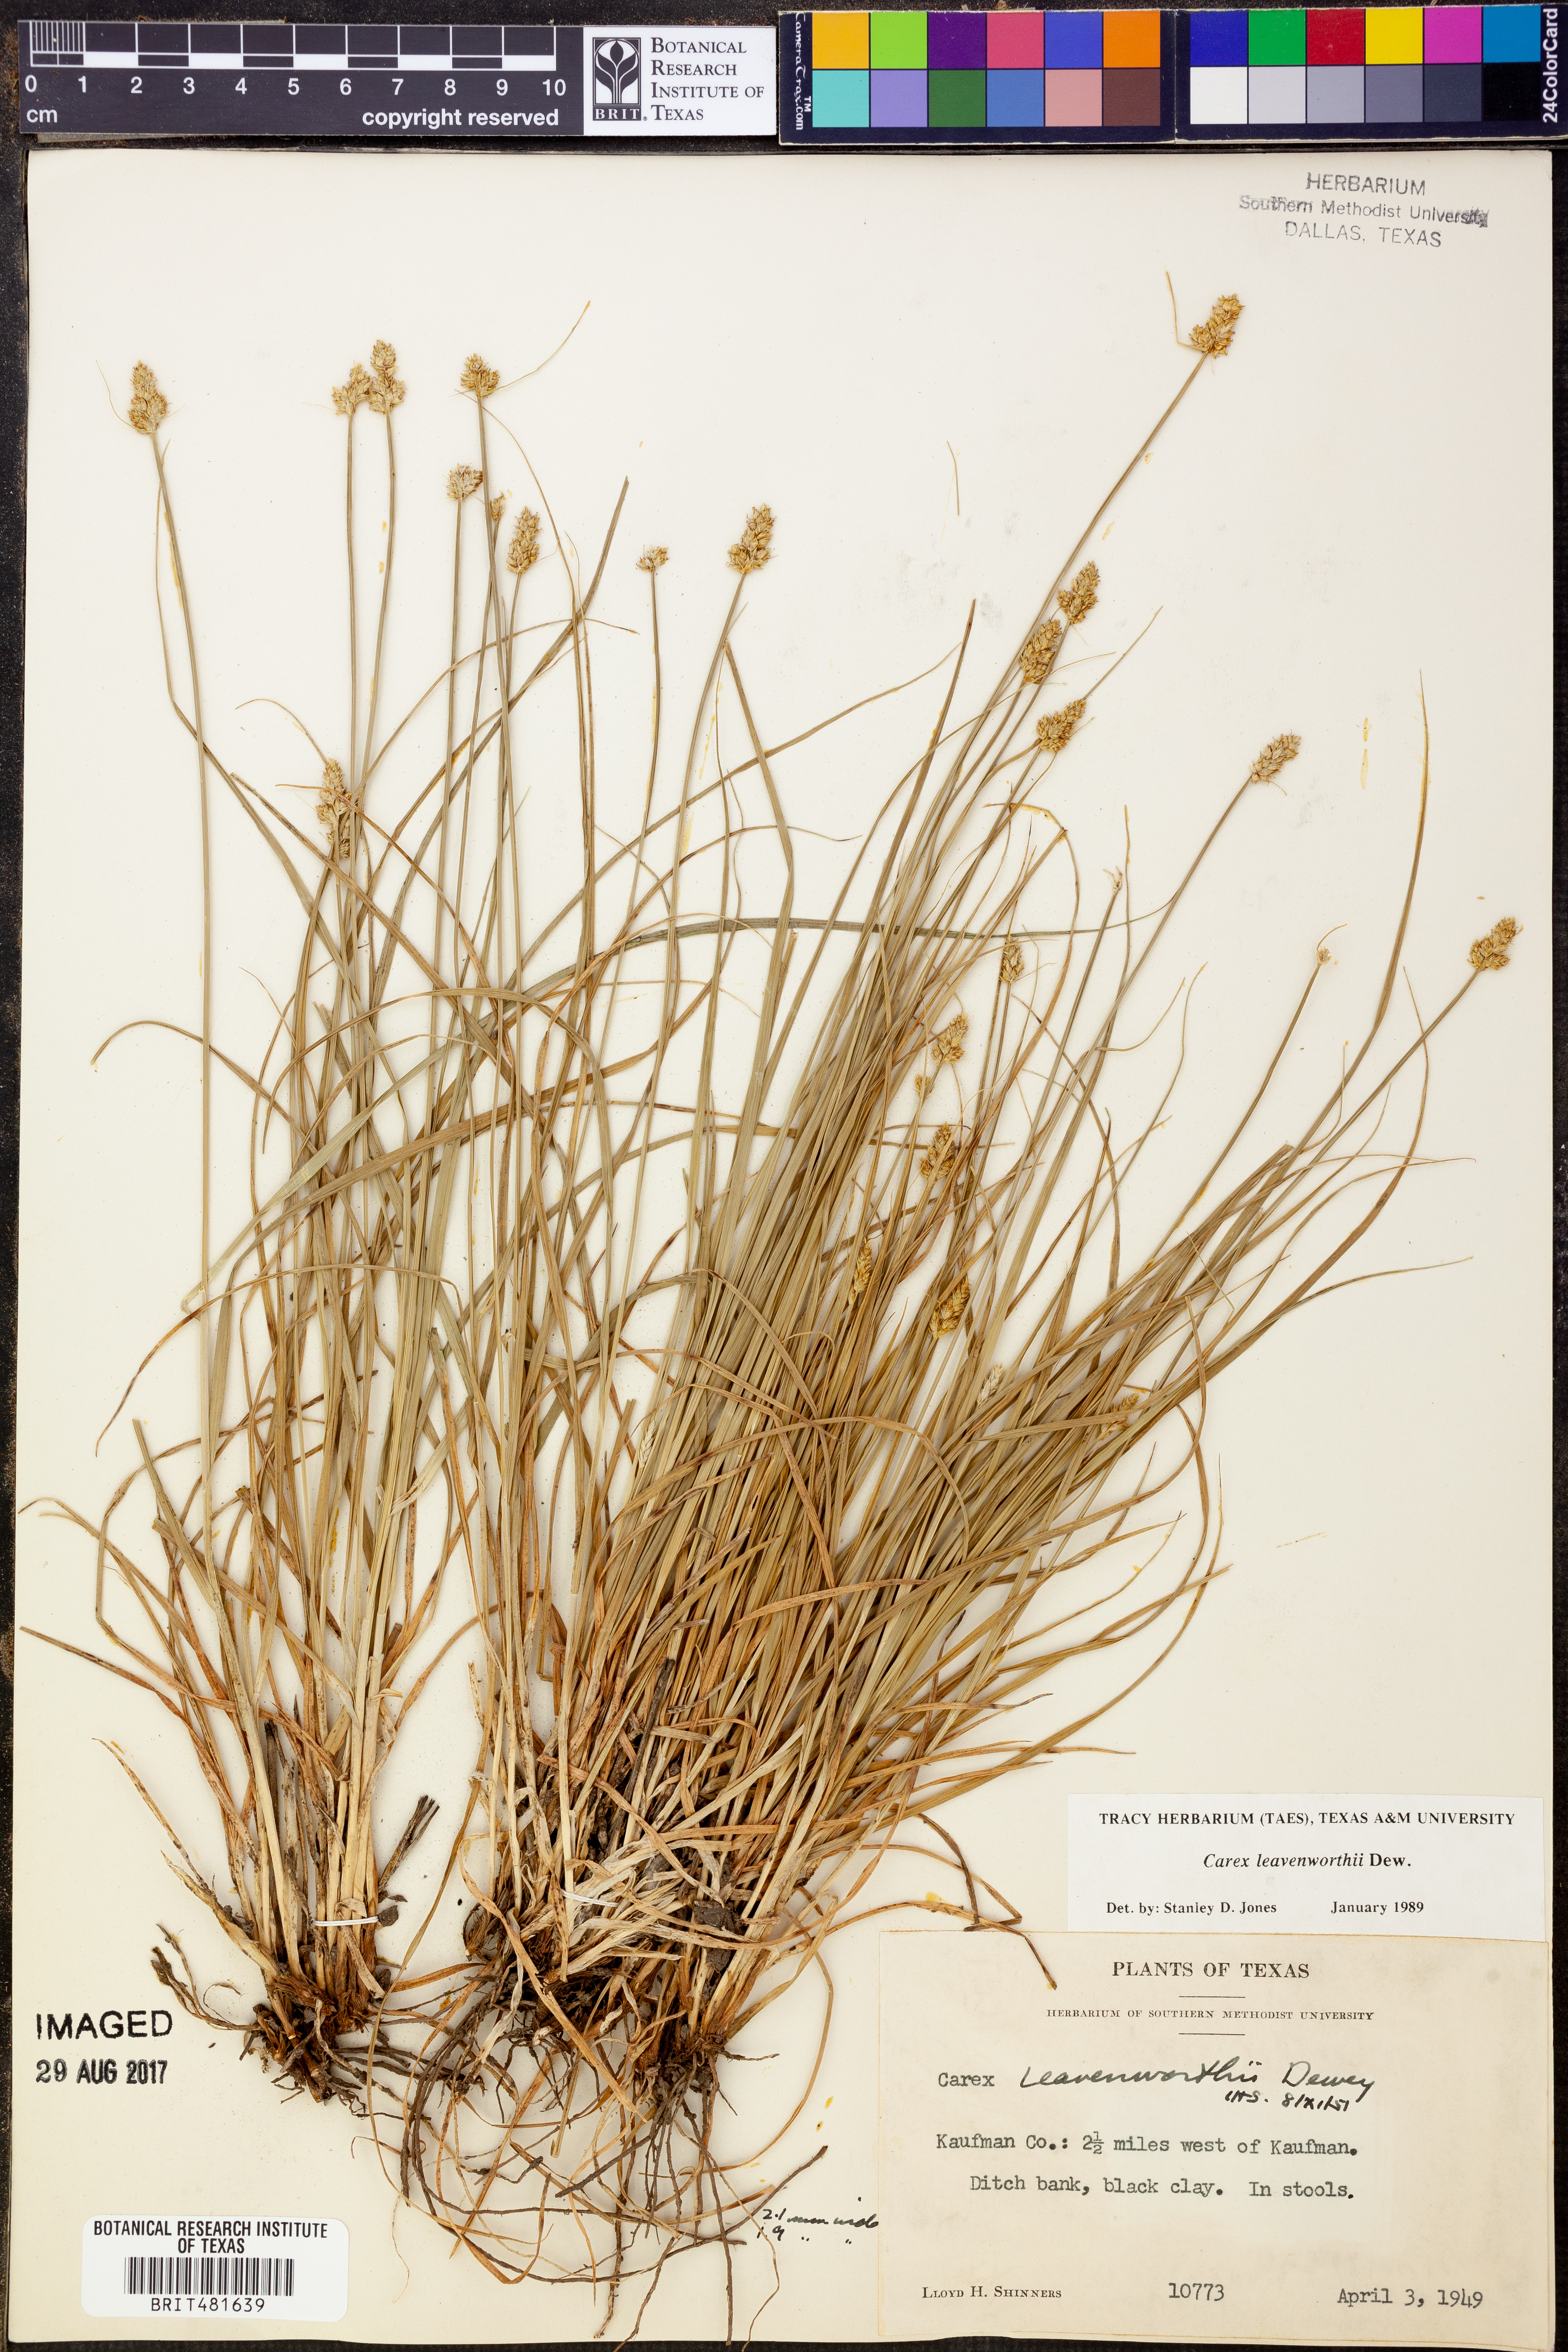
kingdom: Plantae
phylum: Tracheophyta
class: Liliopsida
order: Poales
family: Cyperaceae
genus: Carex
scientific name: Carex leavenworthii
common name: Leavenworth's bracted sedge
